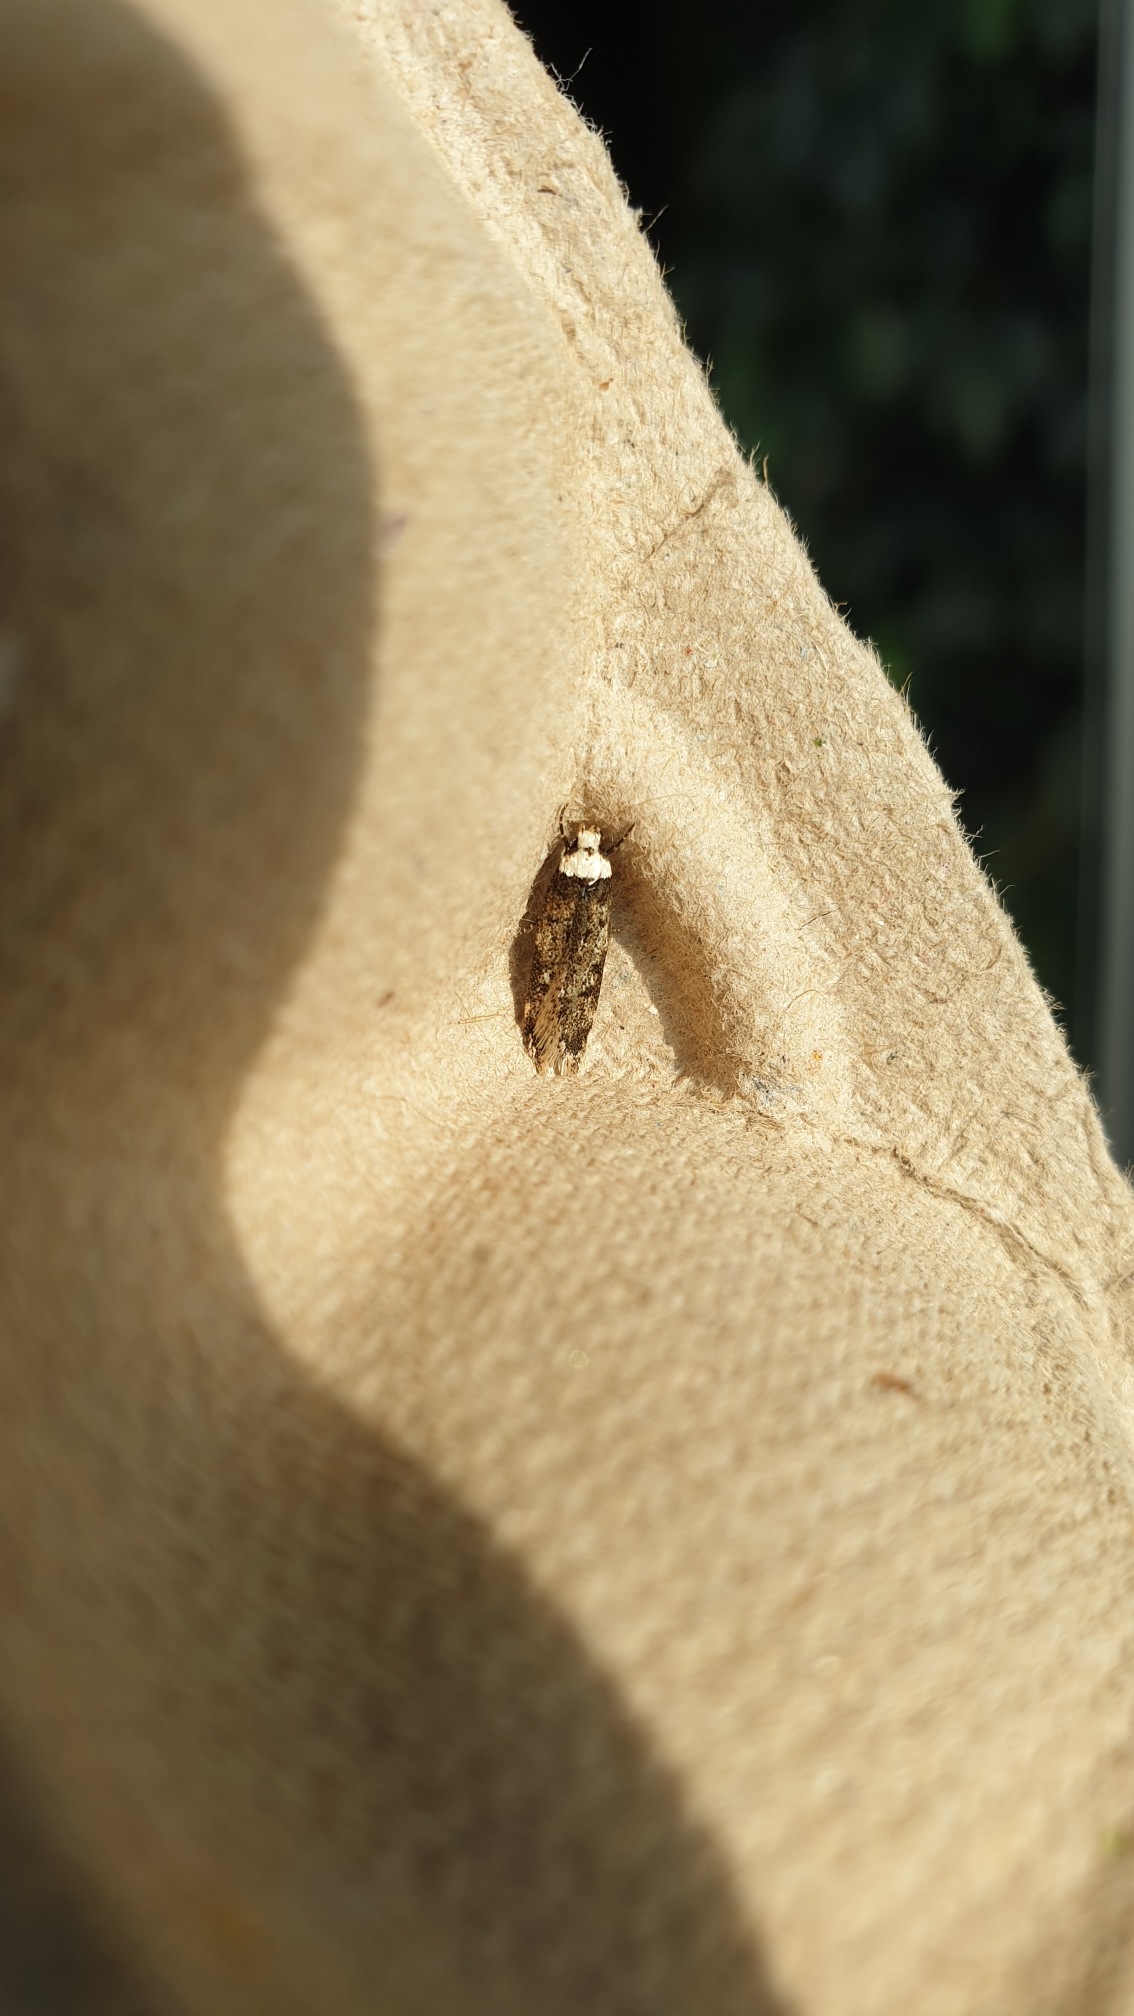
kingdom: Animalia
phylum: Arthropoda
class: Insecta
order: Lepidoptera
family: Oecophoridae
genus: Endrosis
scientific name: Endrosis sarcitrella
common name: Klistermøl
